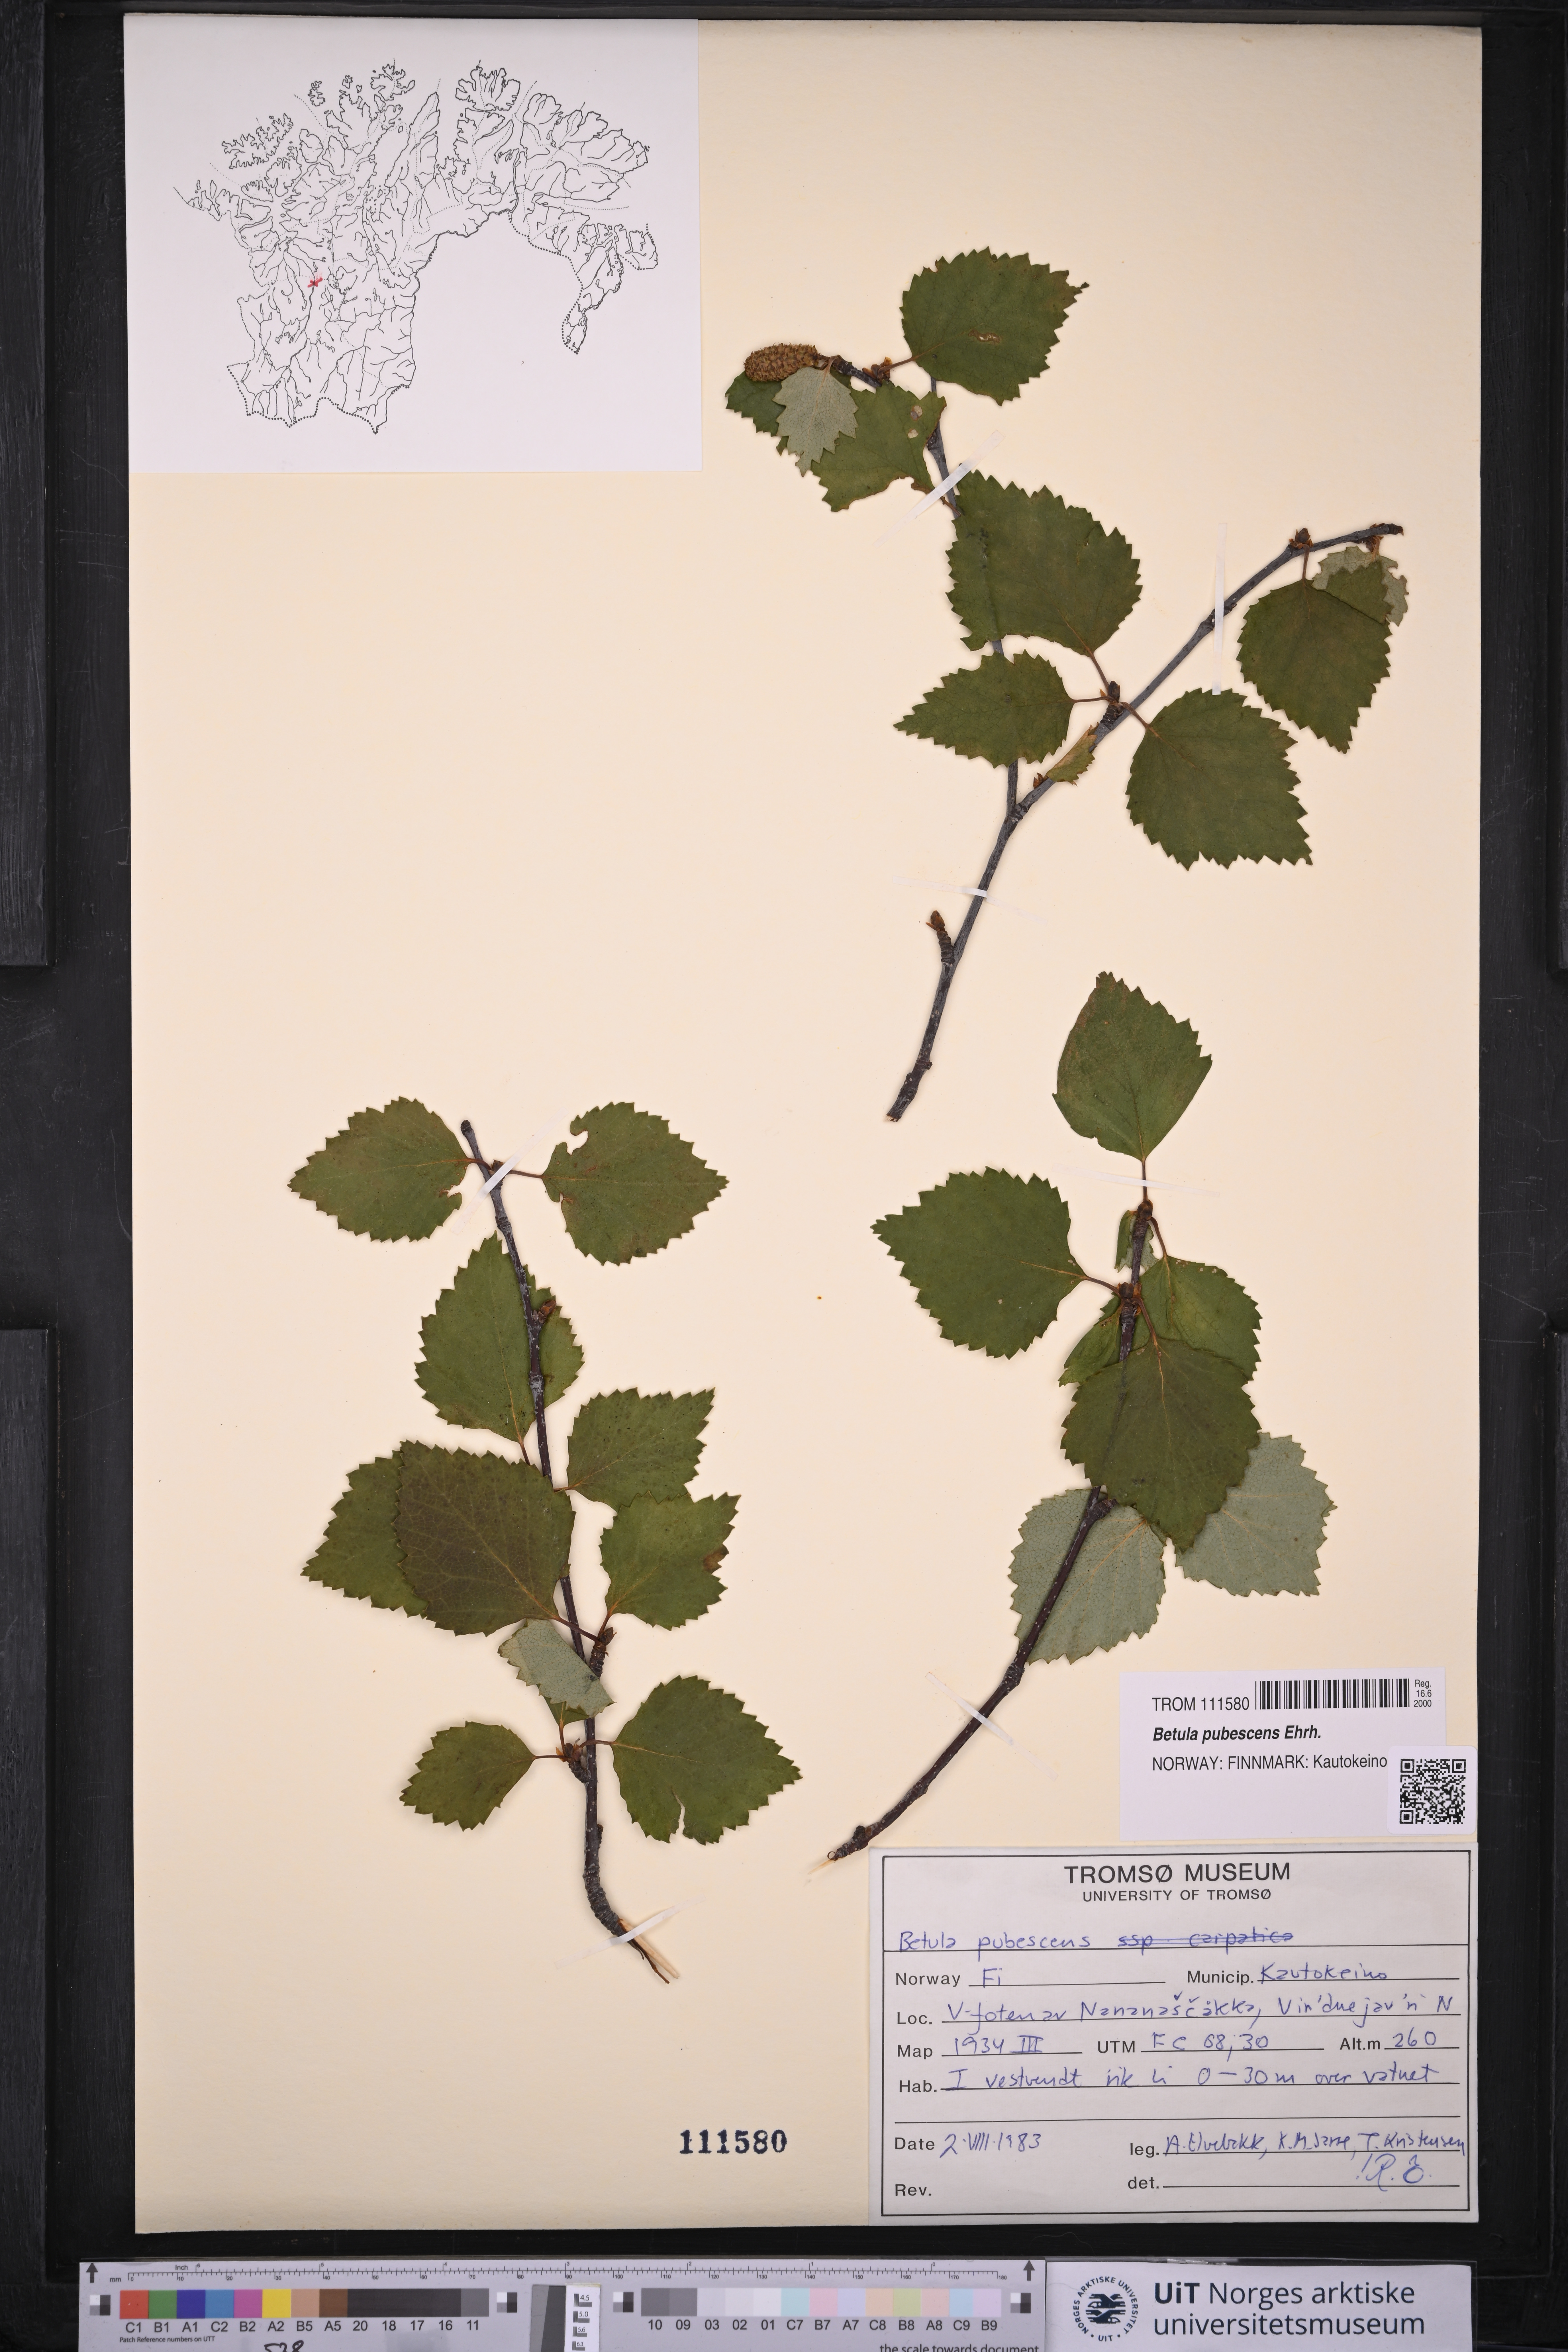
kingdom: Plantae
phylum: Tracheophyta
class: Magnoliopsida
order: Fagales
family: Betulaceae
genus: Betula
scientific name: Betula pubescens
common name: Downy birch
